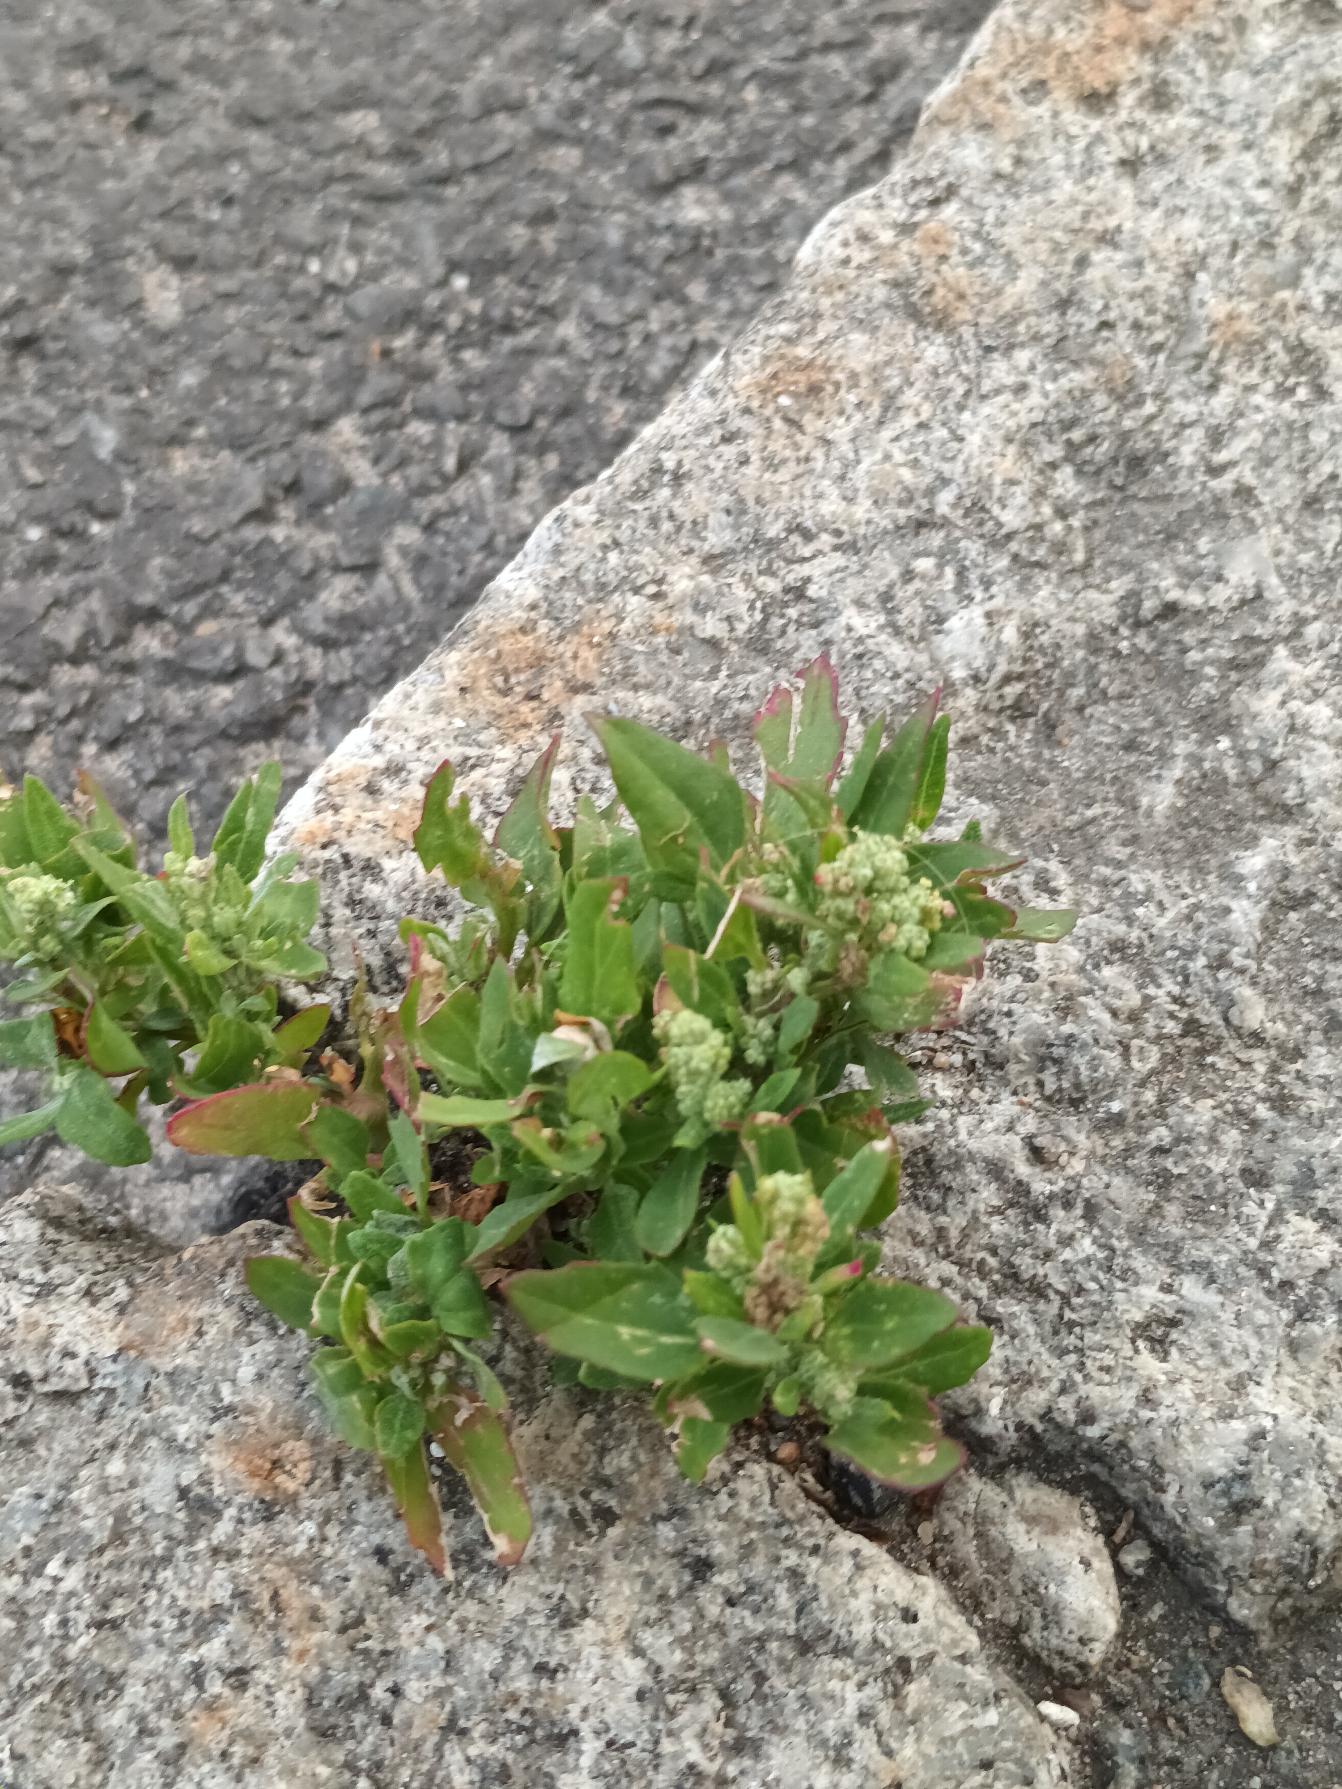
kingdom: Plantae
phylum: Tracheophyta
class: Magnoliopsida
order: Caryophyllales
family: Amaranthaceae
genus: Chenopodium
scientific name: Chenopodium album
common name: Hvidmelet gåsefod
